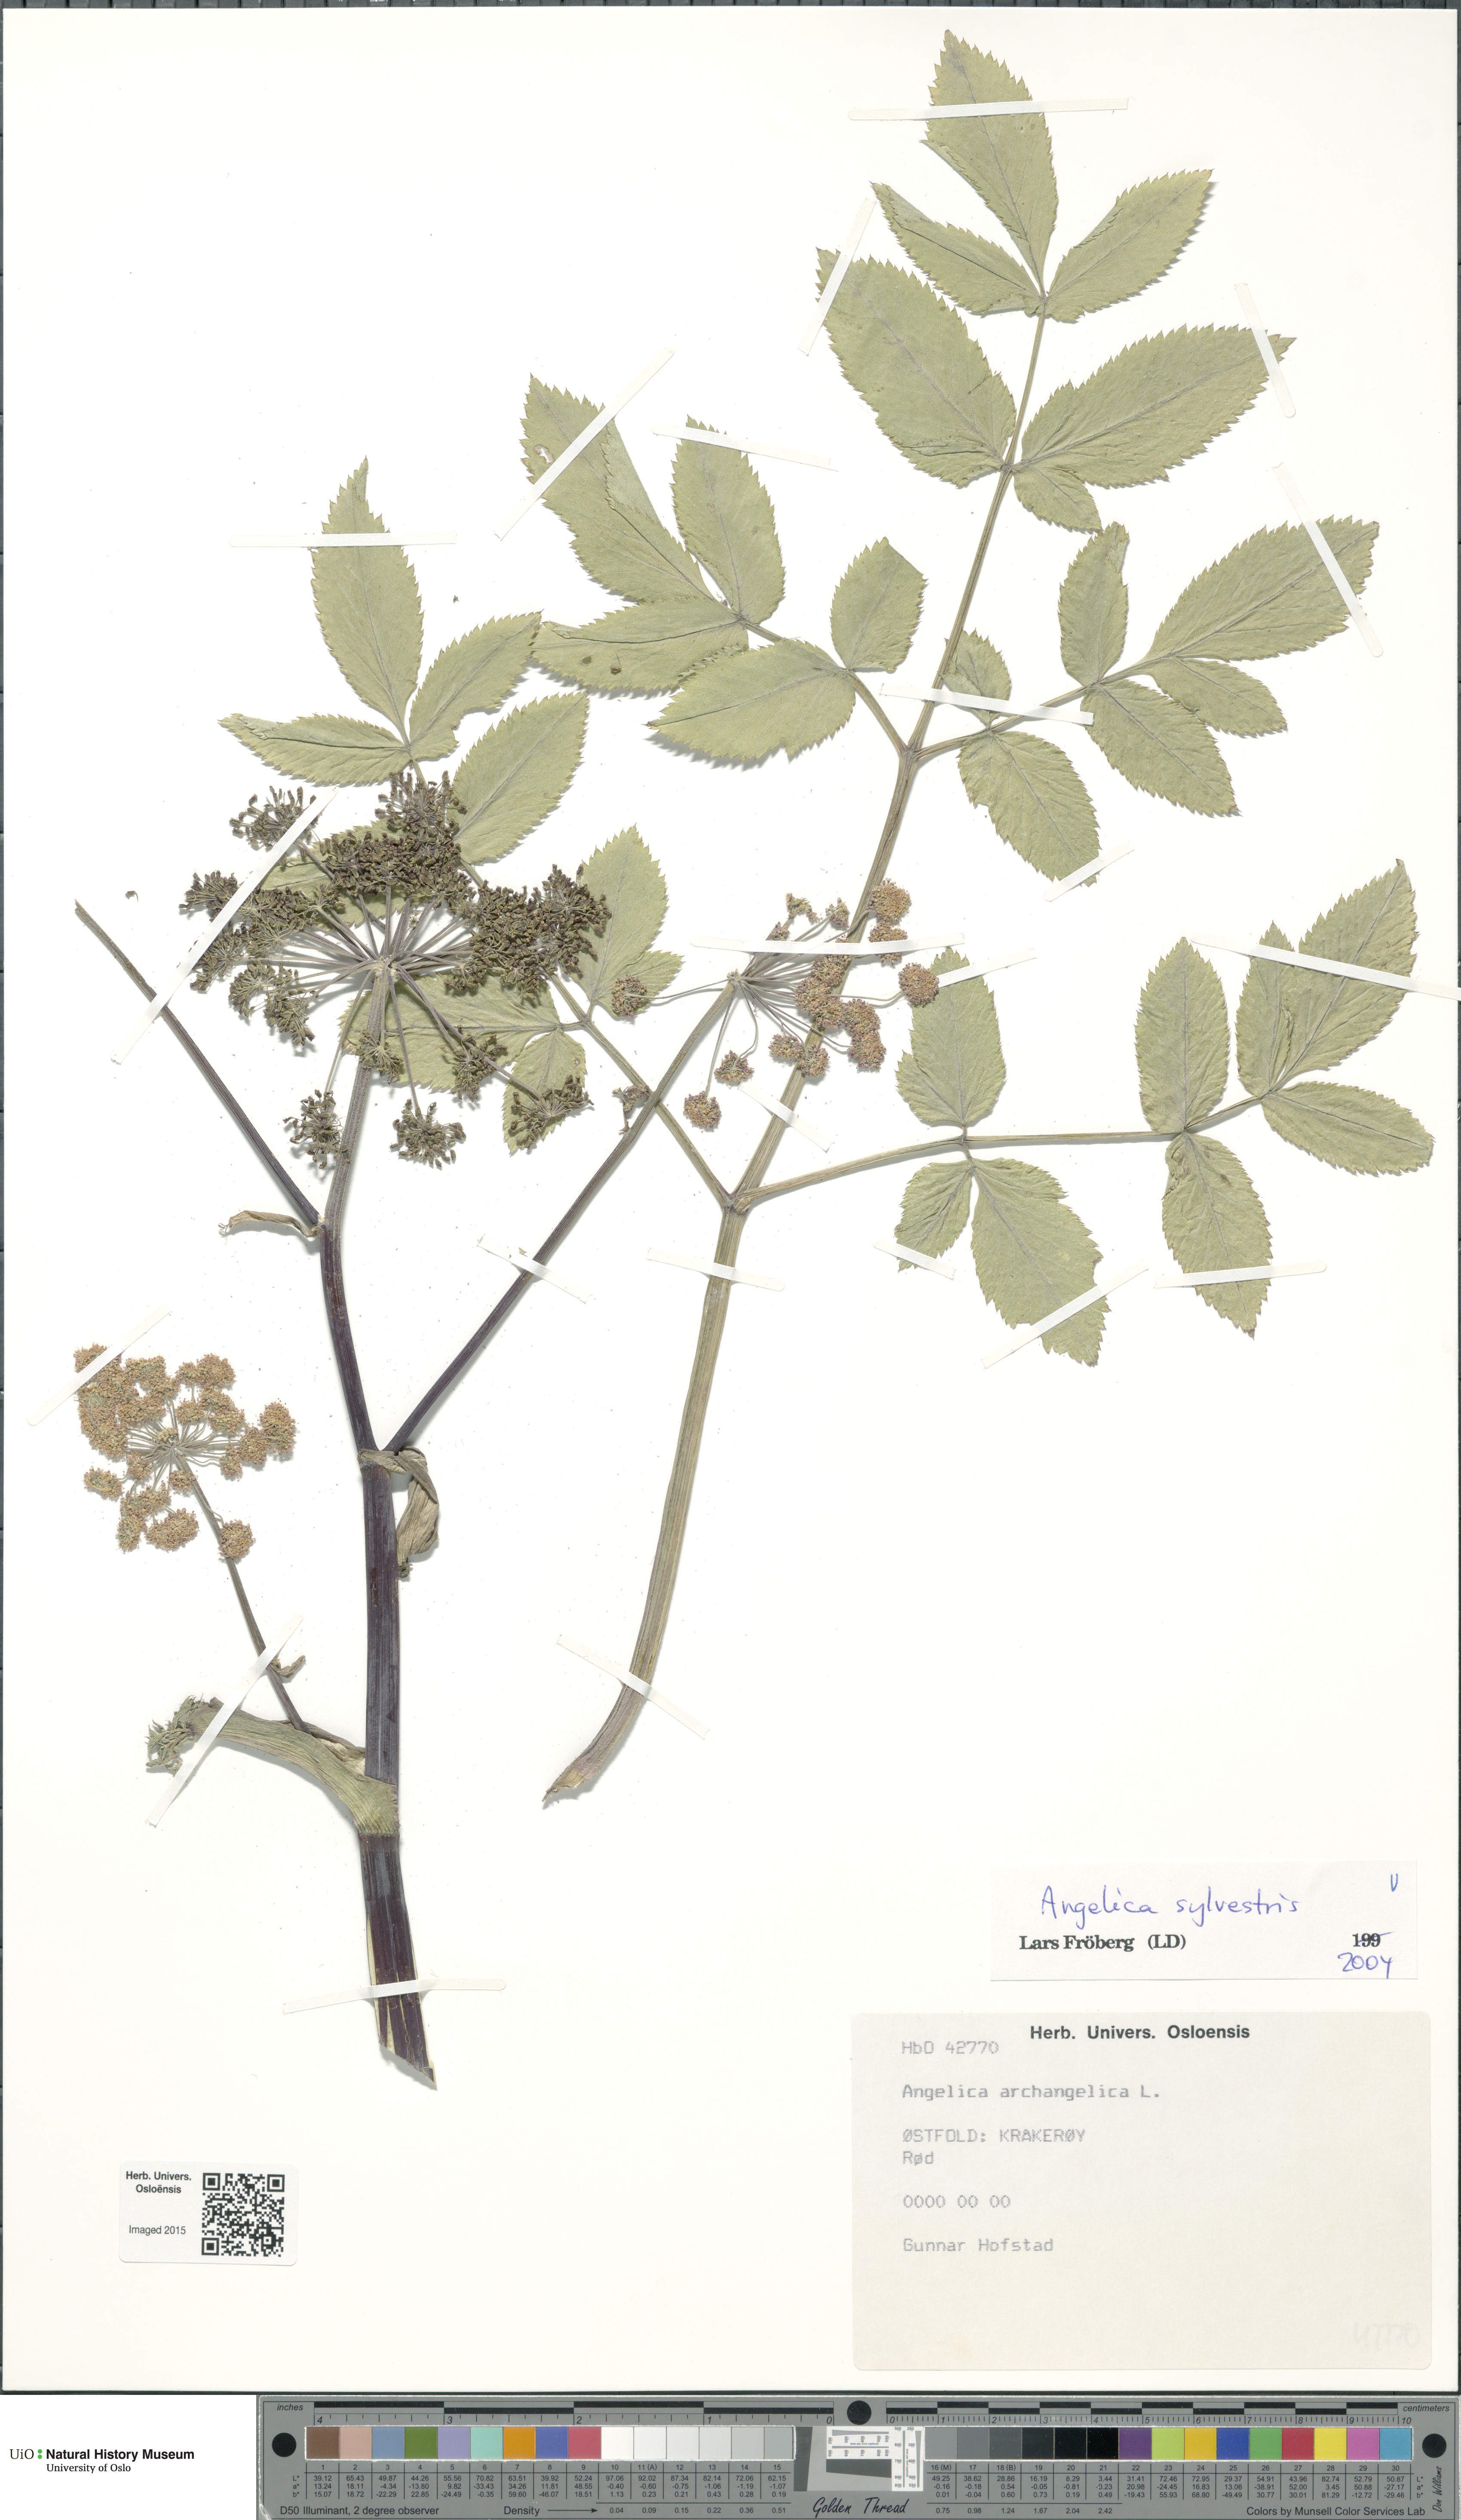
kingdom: Plantae
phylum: Tracheophyta
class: Magnoliopsida
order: Apiales
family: Apiaceae
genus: Angelica
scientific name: Angelica sylvestris
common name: Wild angelica
